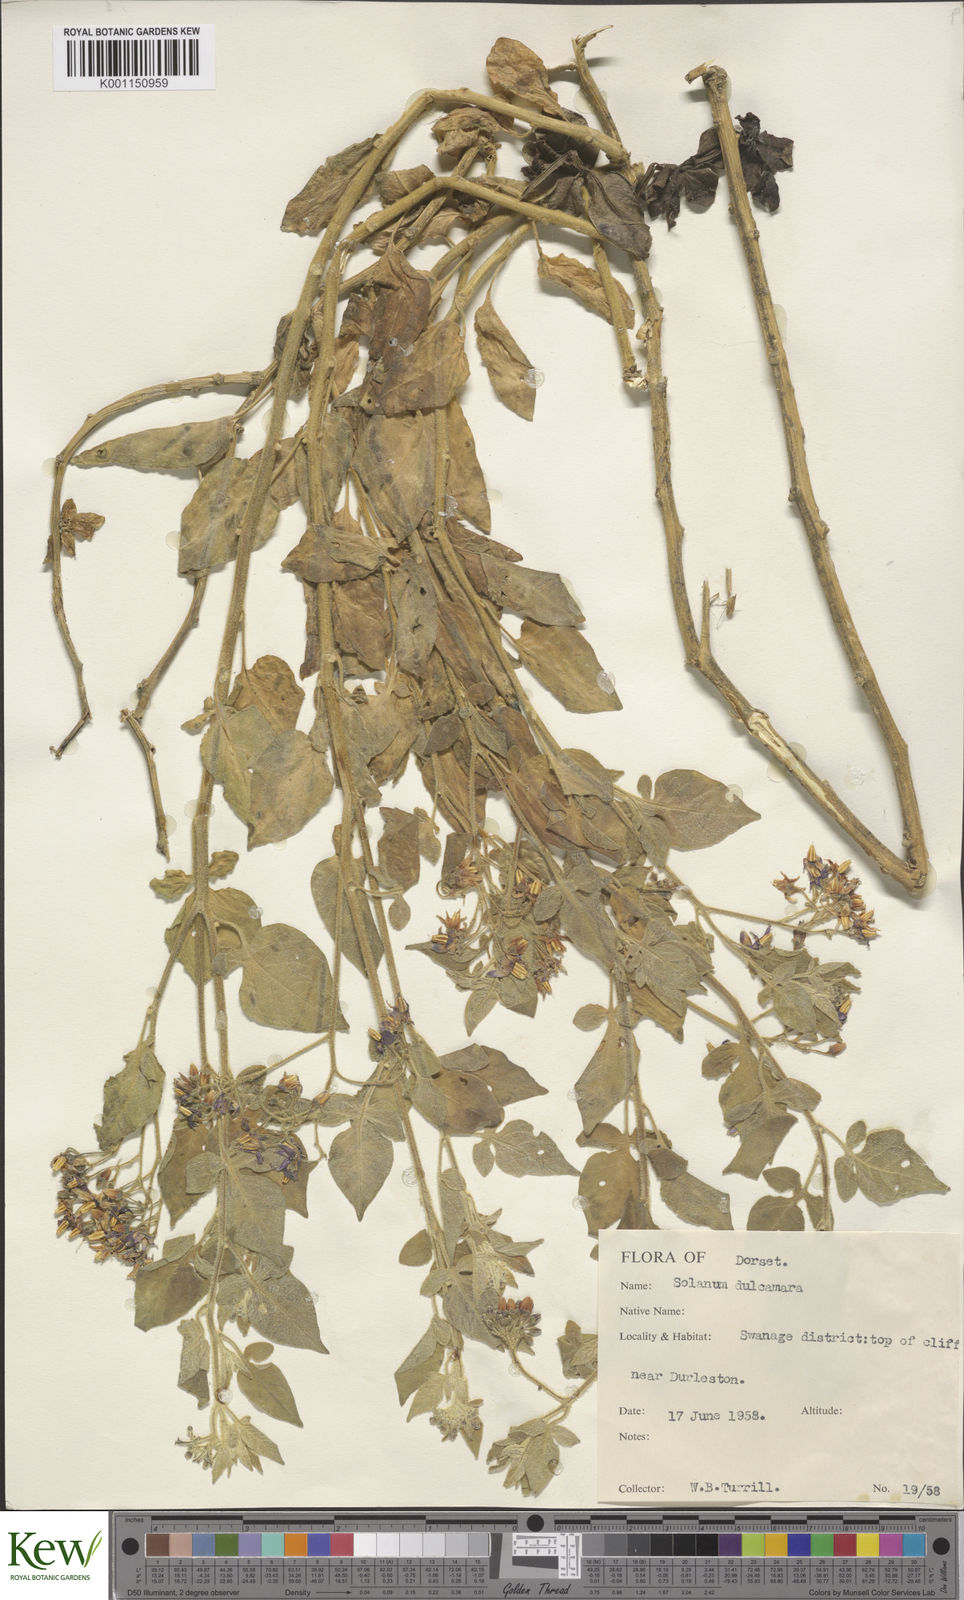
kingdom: Plantae
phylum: Tracheophyta
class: Magnoliopsida
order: Solanales
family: Solanaceae
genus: Solanum
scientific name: Solanum dulcamara
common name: Climbing nightshade
